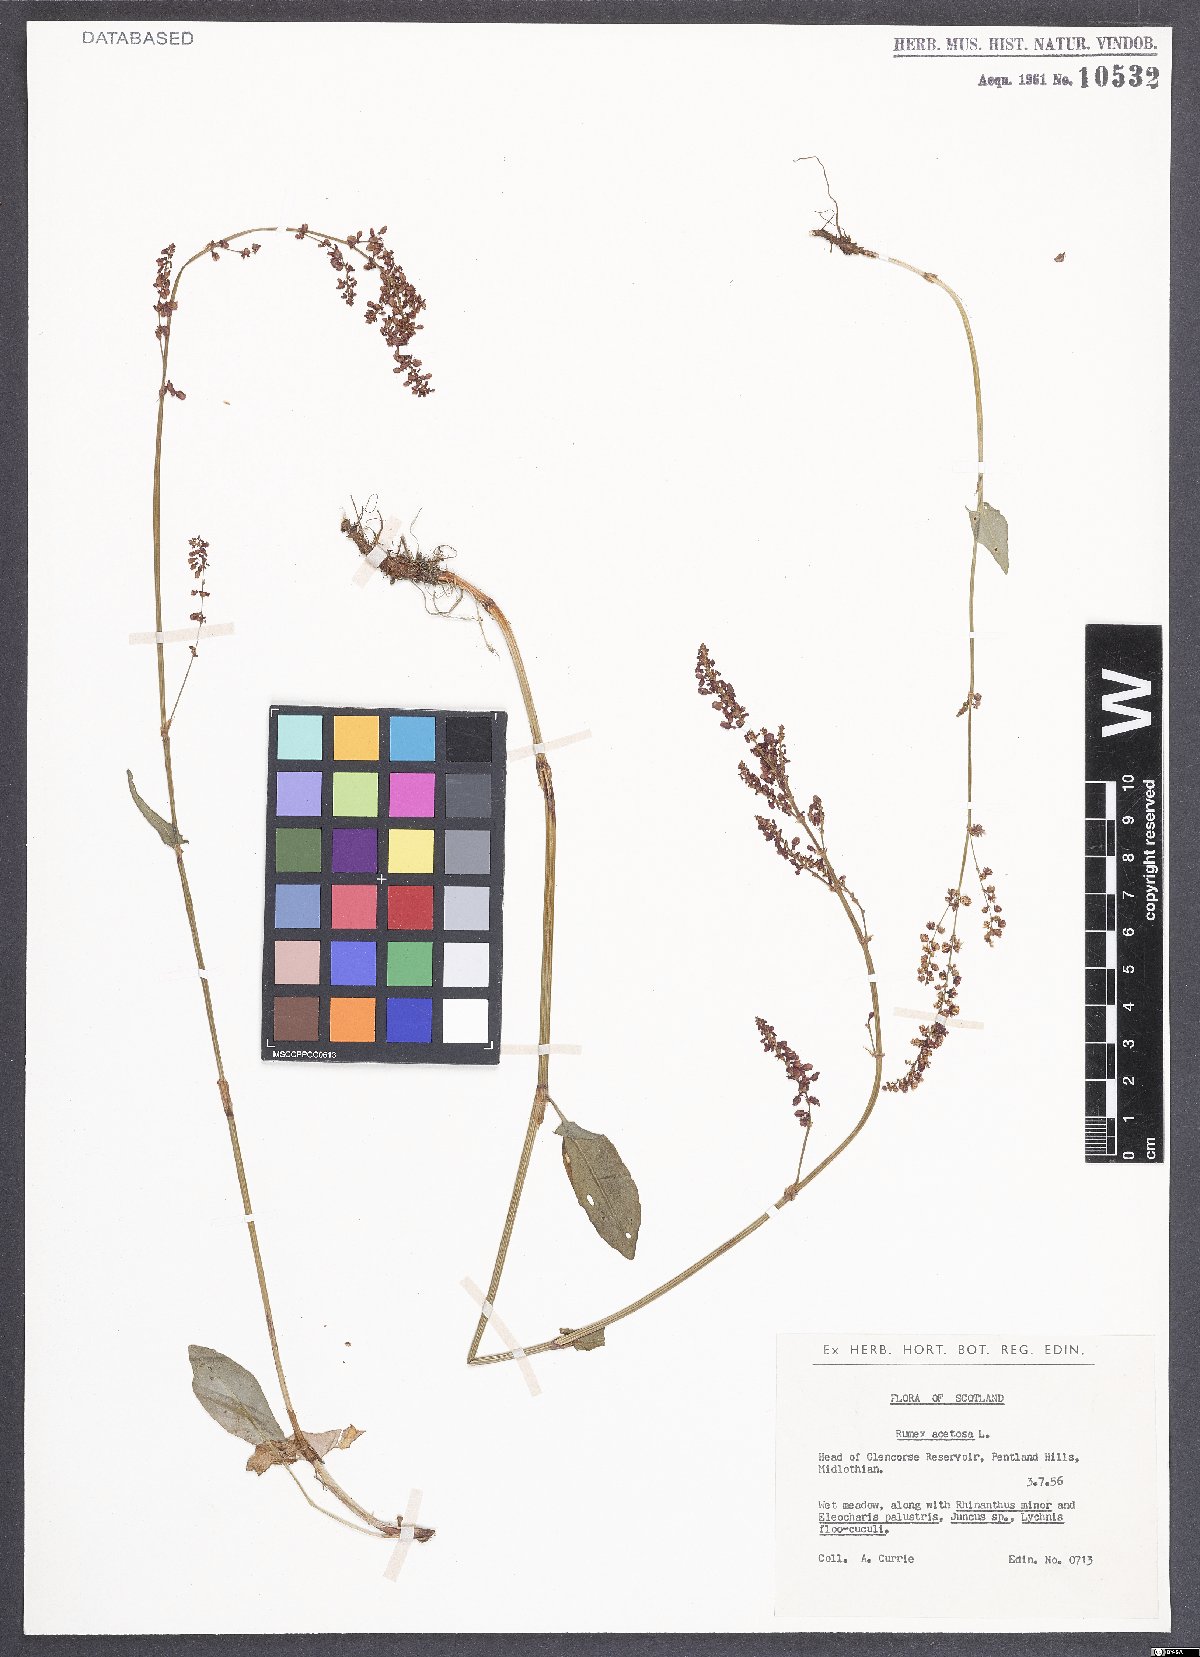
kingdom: Plantae
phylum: Tracheophyta
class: Magnoliopsida
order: Caryophyllales
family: Polygonaceae
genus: Rumex
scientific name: Rumex acetosa
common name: Garden sorrel
